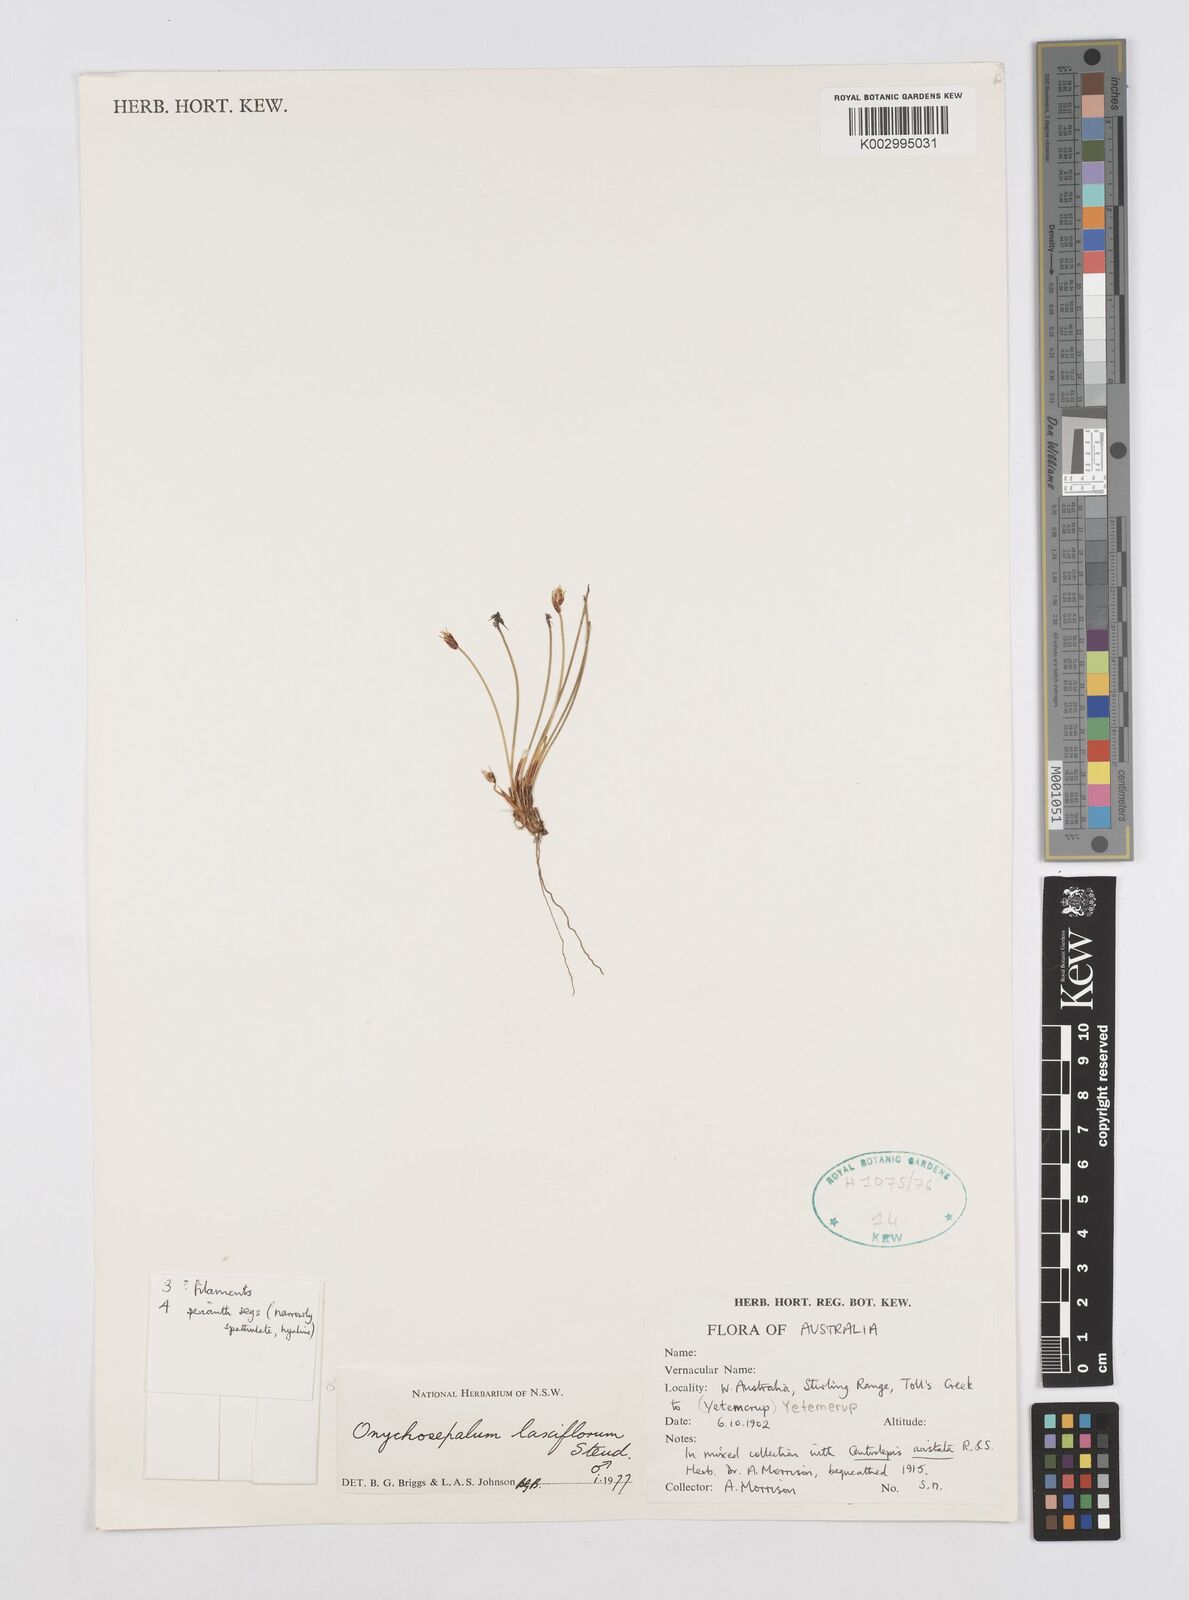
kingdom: Plantae
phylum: Tracheophyta
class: Liliopsida
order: Poales
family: Restionaceae
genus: Desmocladus
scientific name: Desmocladus laxiflorus
